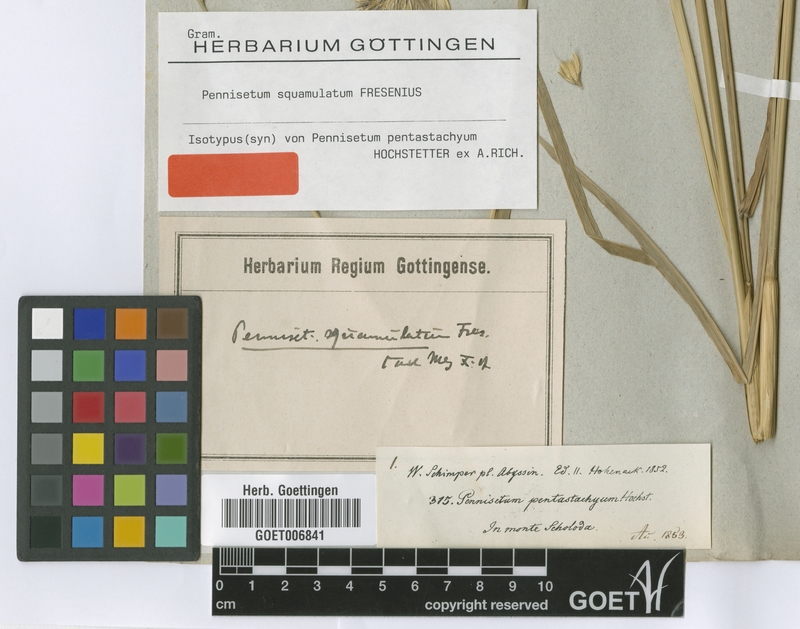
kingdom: Plantae
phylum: Tracheophyta
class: Liliopsida
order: Poales
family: Poaceae
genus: Cenchrus
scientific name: Cenchrus squamulatus
